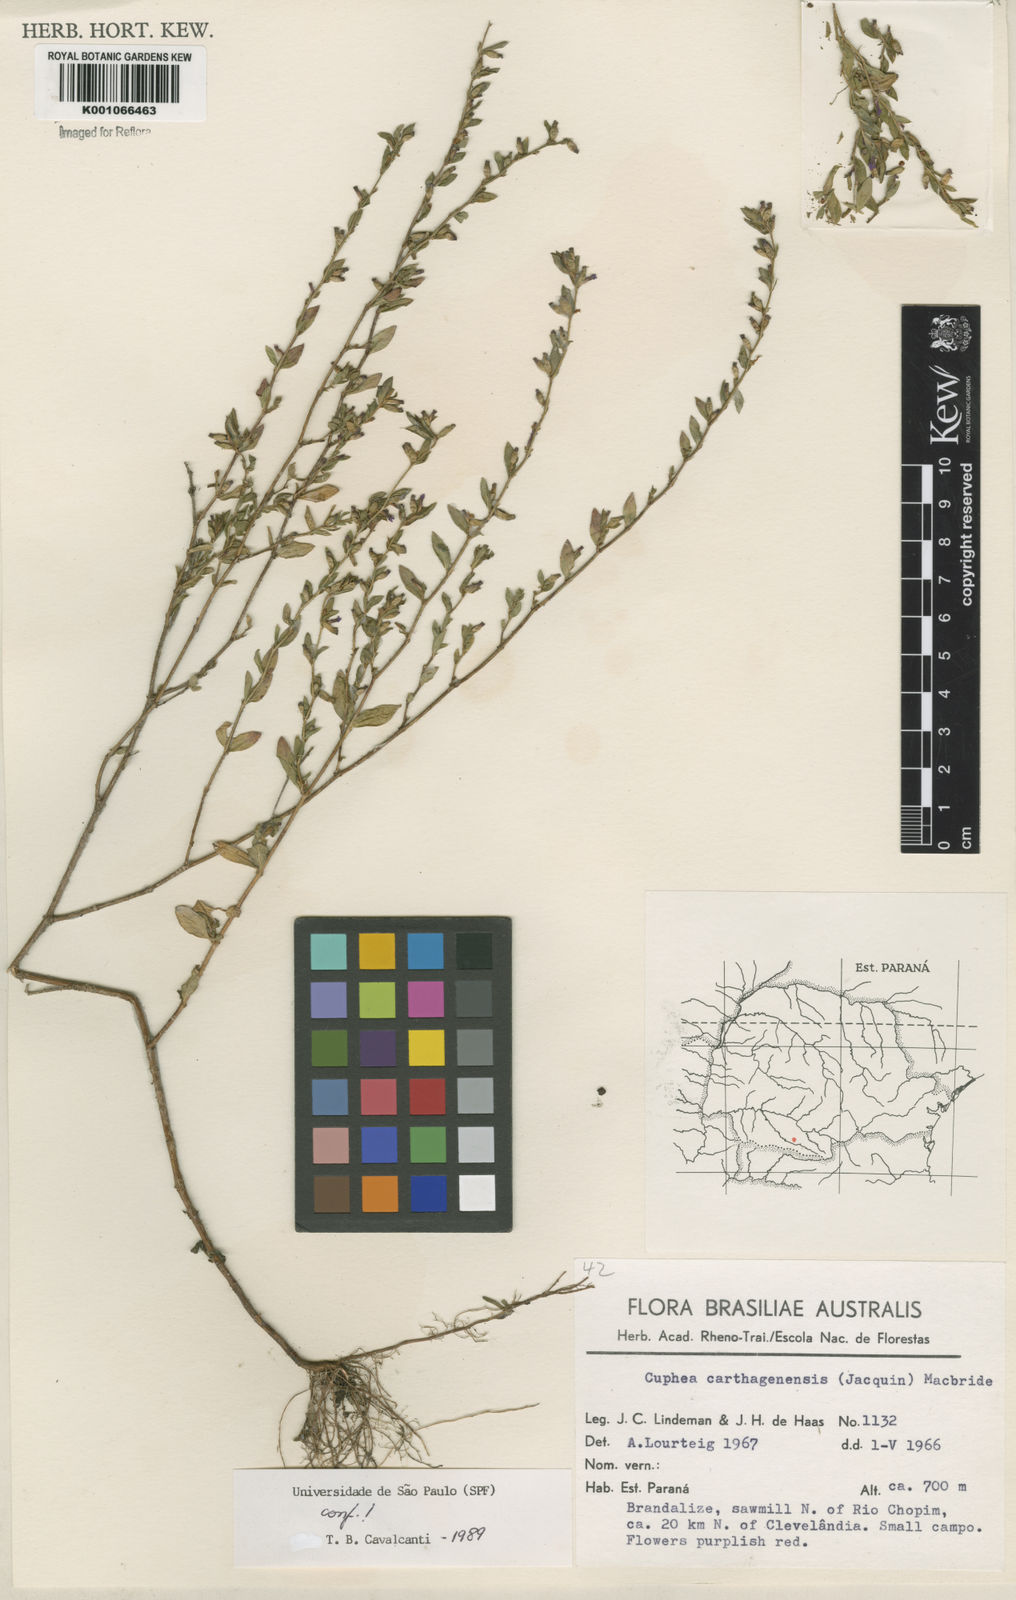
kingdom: Plantae
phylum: Tracheophyta
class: Magnoliopsida
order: Myrtales
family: Lythraceae
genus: Cuphea
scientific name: Cuphea carthagenensis
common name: Colombian waxweed
